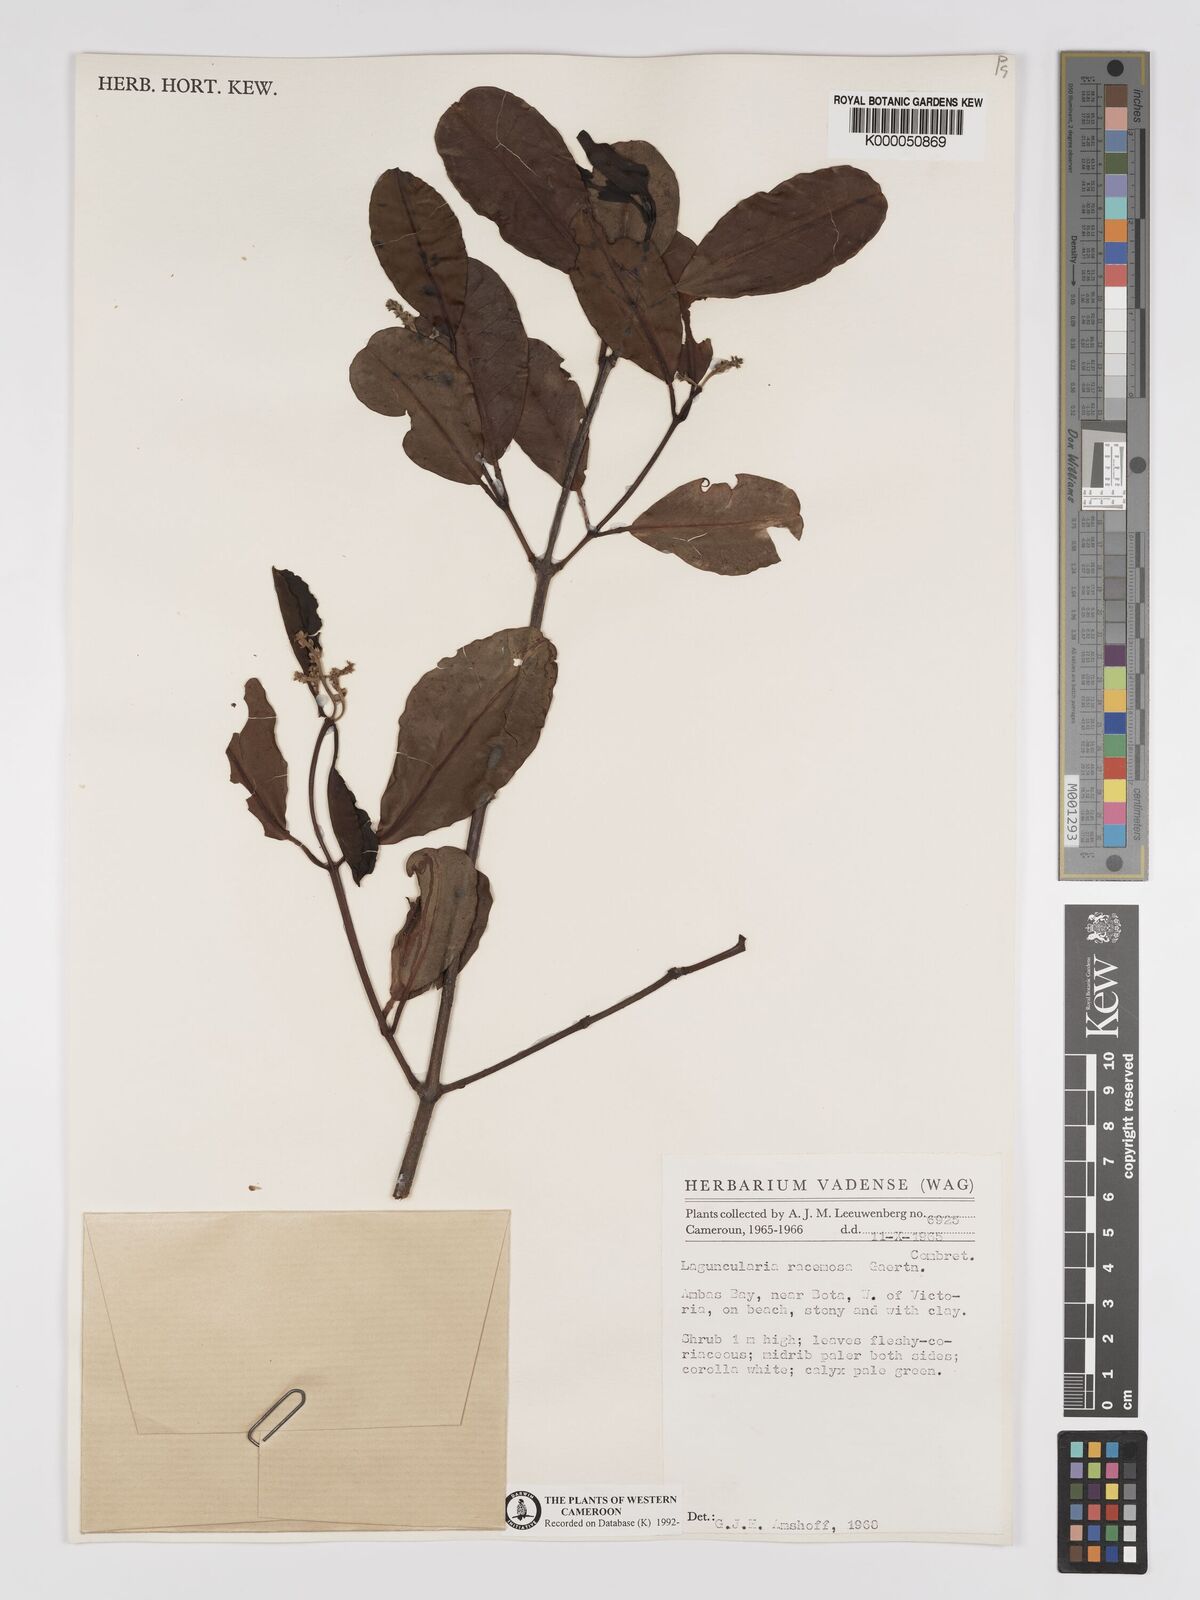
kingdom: Plantae
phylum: Tracheophyta
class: Magnoliopsida
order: Myrtales
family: Combretaceae
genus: Laguncularia
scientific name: Laguncularia racemosa
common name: White mangrove
